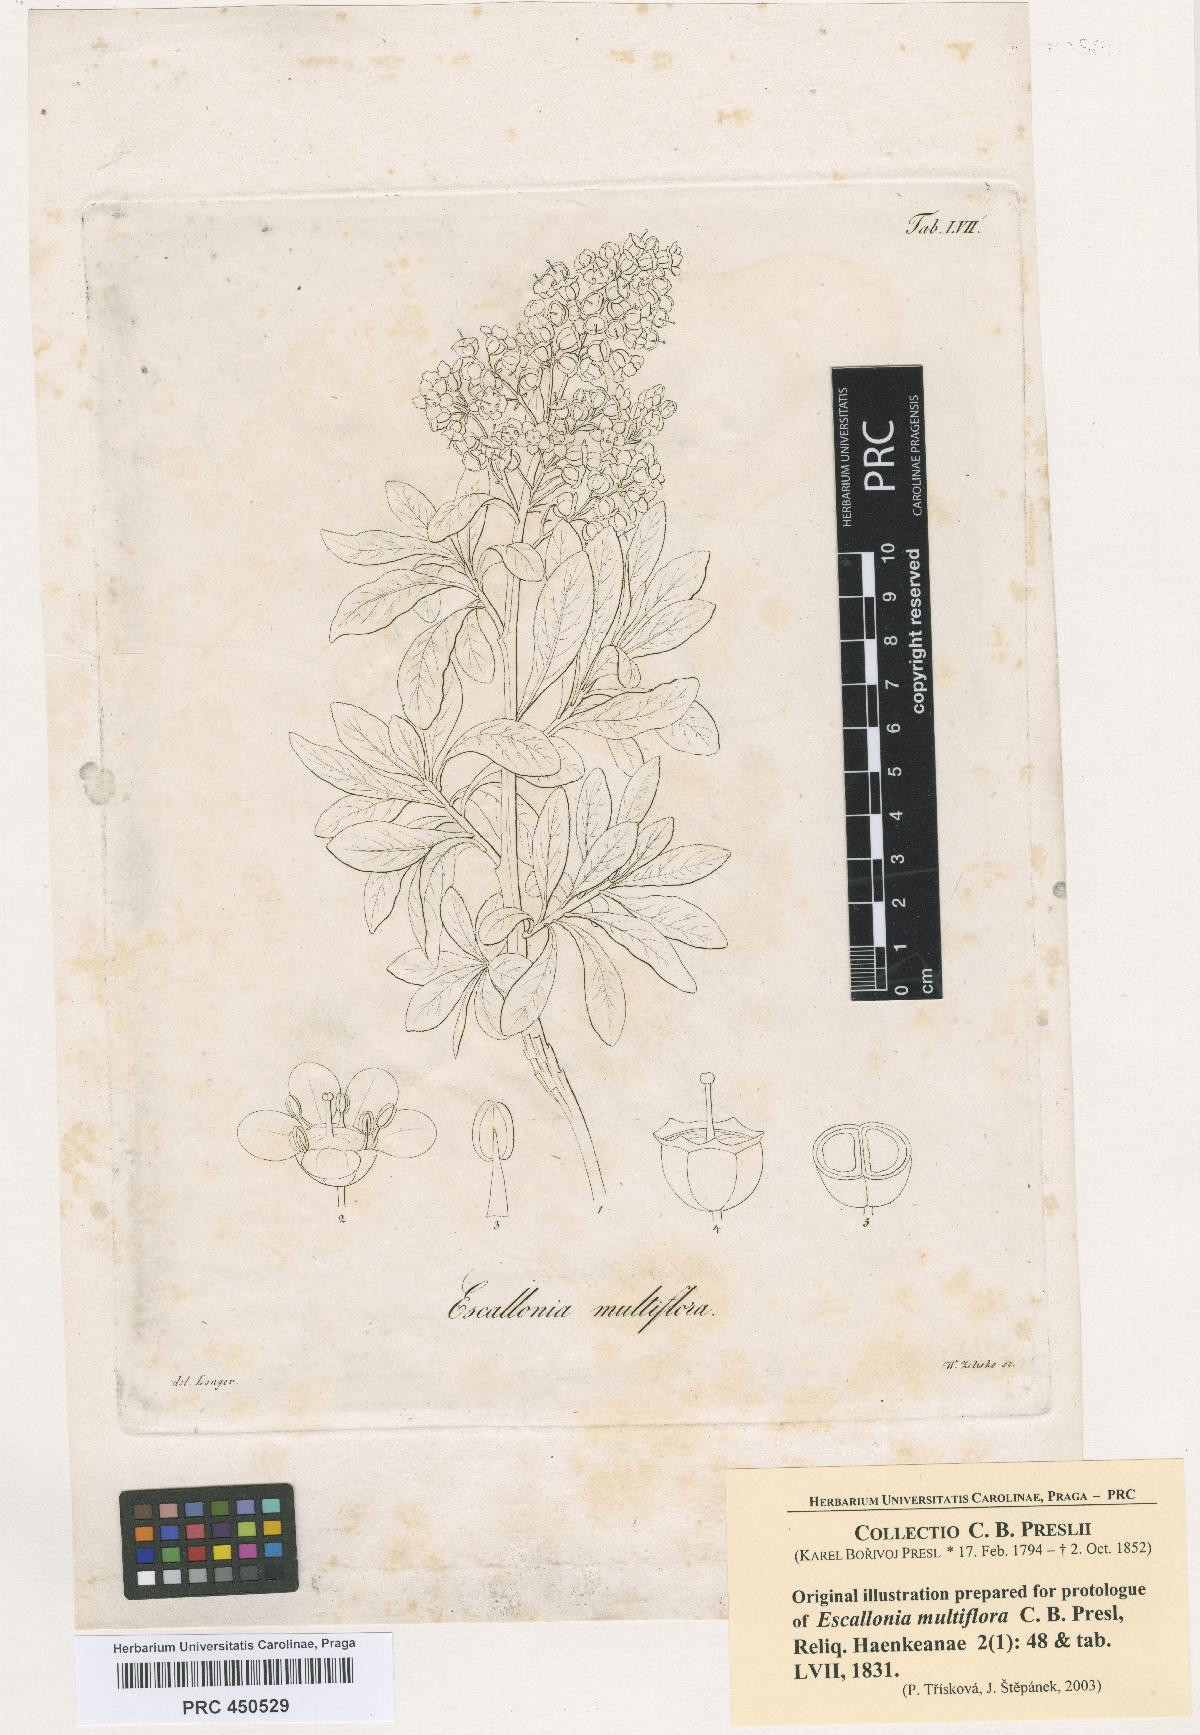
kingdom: Plantae
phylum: Tracheophyta
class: Magnoliopsida
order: Escalloniales
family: Escalloniaceae
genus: Escallonia
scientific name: Escallonia resinosa
